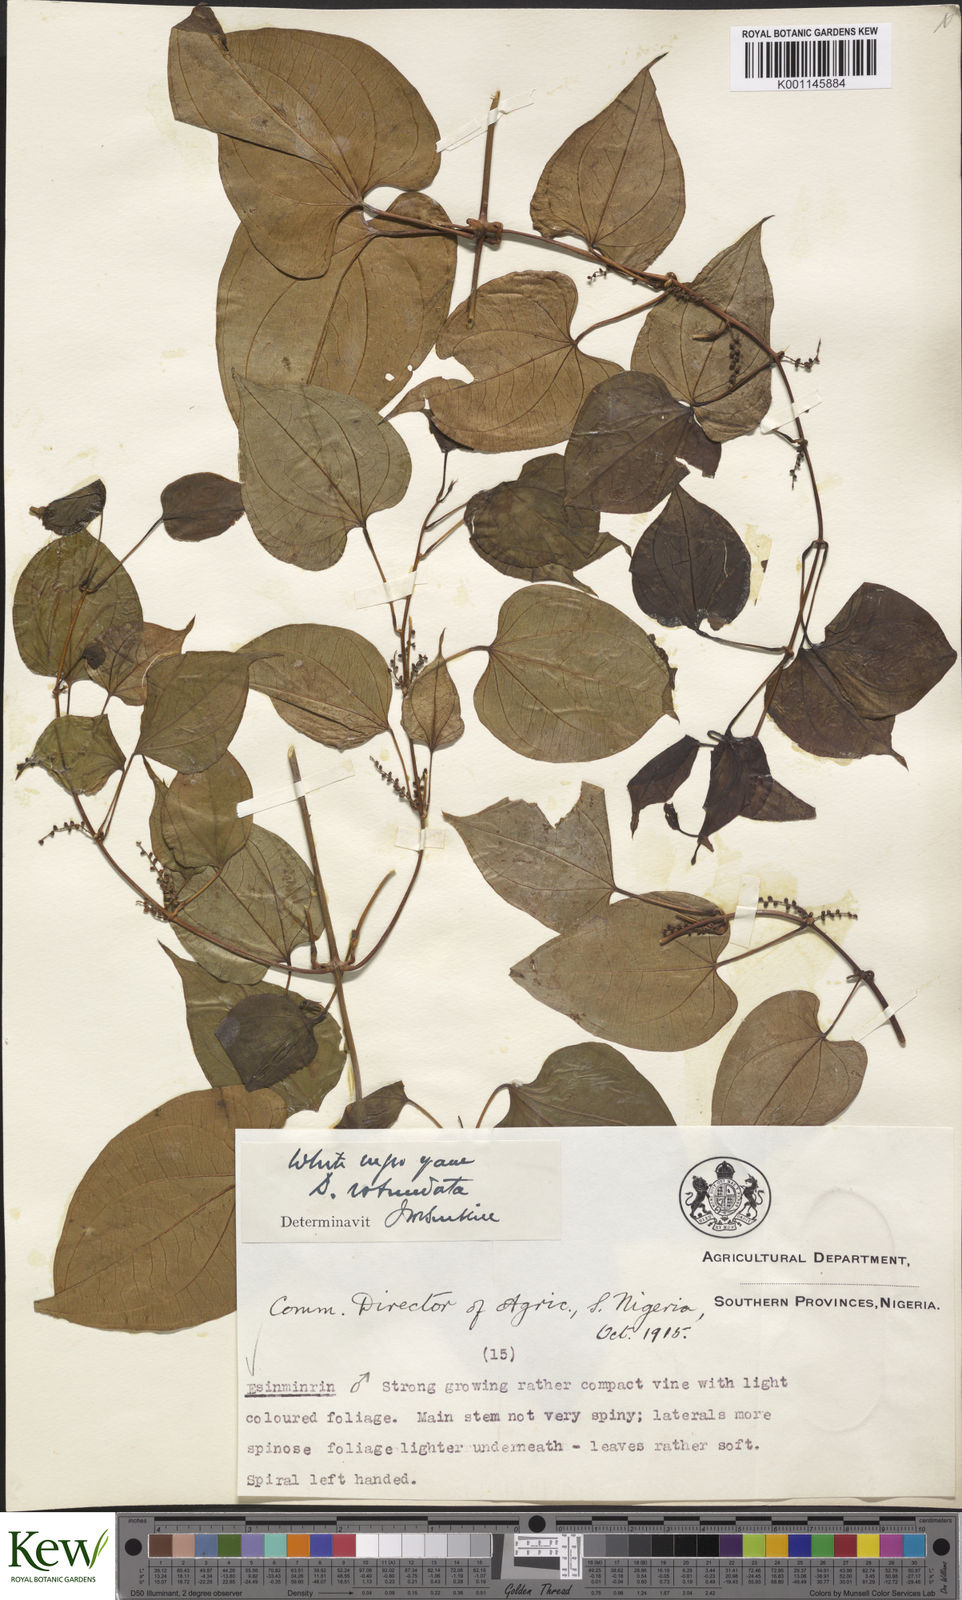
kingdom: Plantae
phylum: Tracheophyta
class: Liliopsida
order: Dioscoreales
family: Dioscoreaceae
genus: Dioscorea
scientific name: Dioscorea cayenensis
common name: Attoto yam
